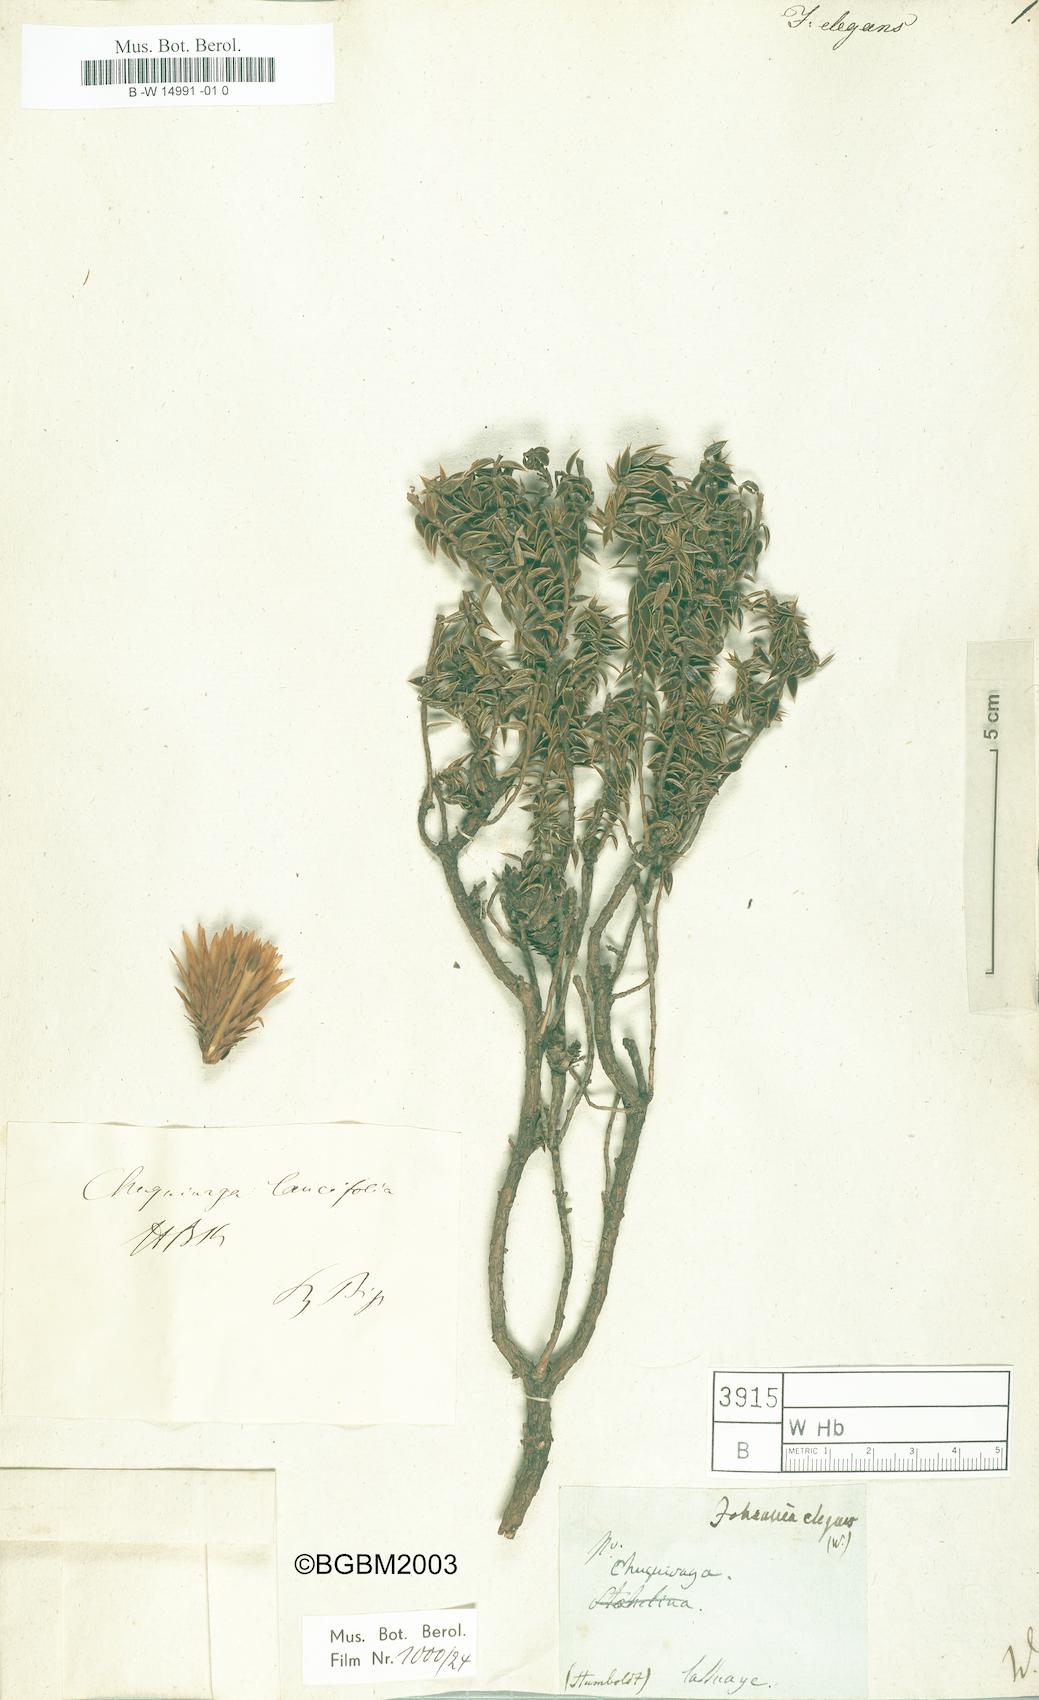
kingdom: Plantae
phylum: Tracheophyta
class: Magnoliopsida
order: Asterales
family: Asteraceae
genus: Chuquiraga
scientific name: Chuquiraga Johannia elegans
